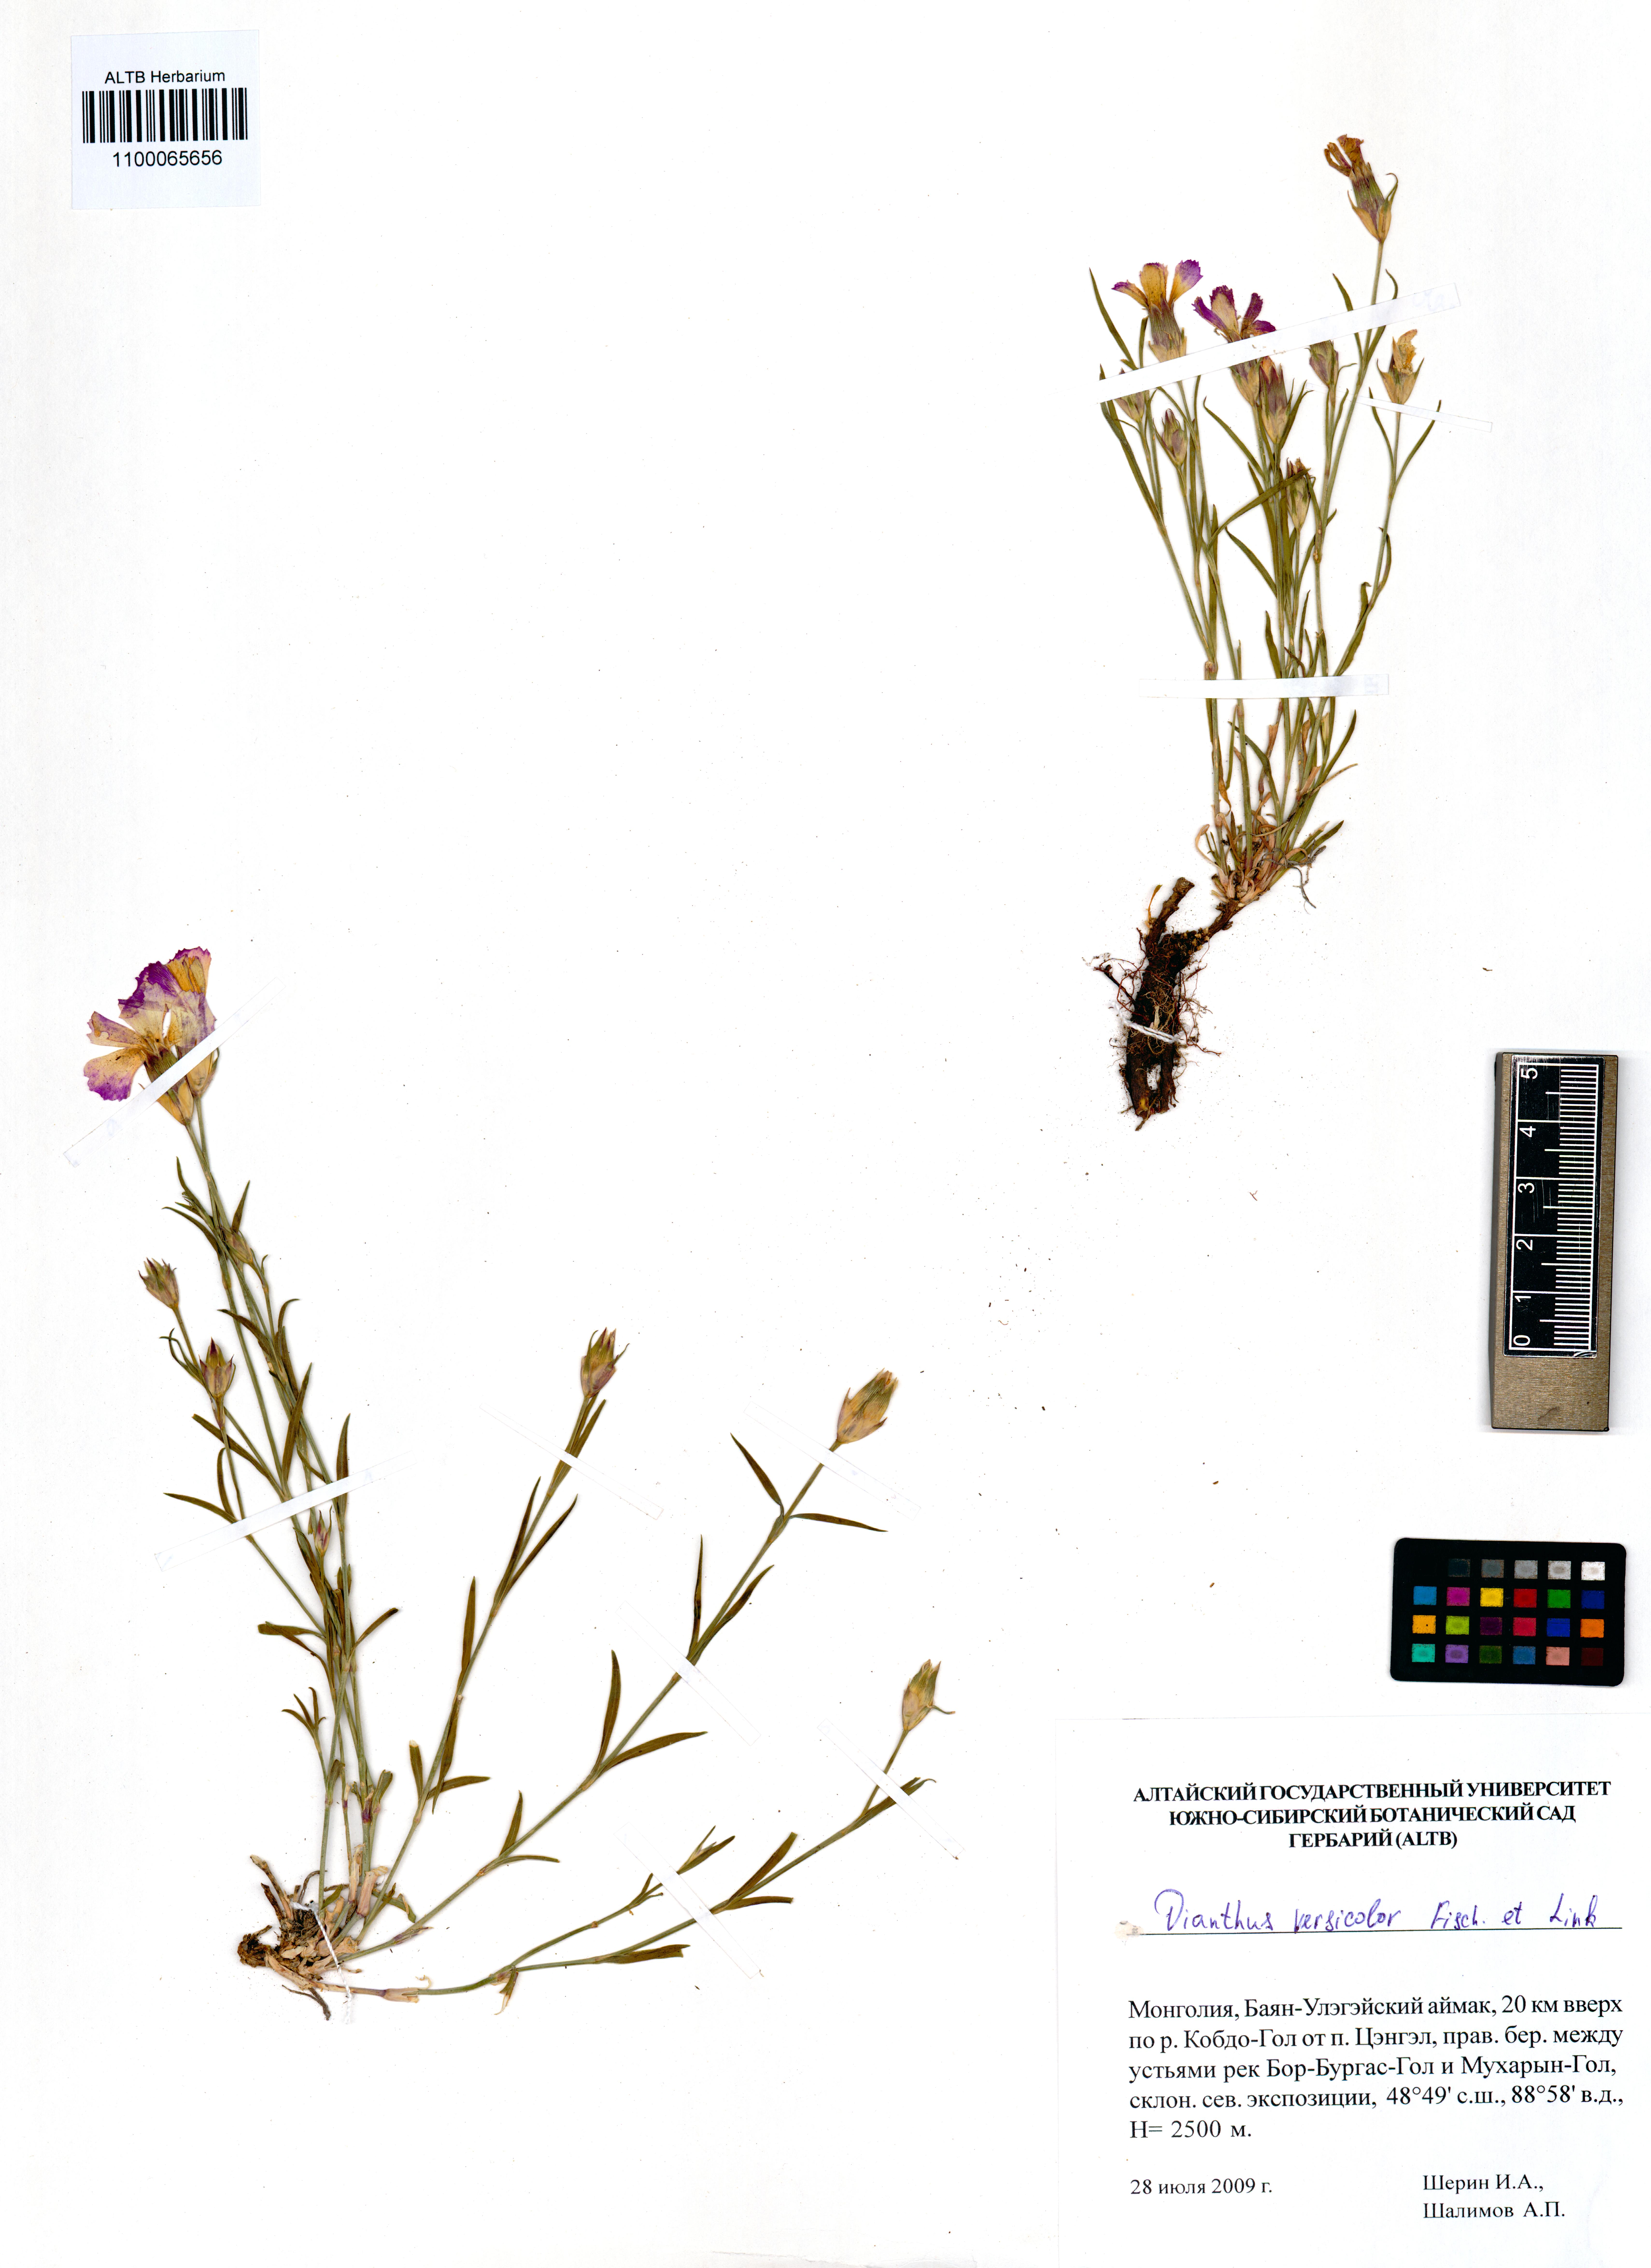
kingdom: Plantae
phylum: Tracheophyta
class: Magnoliopsida
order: Caryophyllales
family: Caryophyllaceae
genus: Dianthus
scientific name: Dianthus chinensis
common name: Rainbow pink
